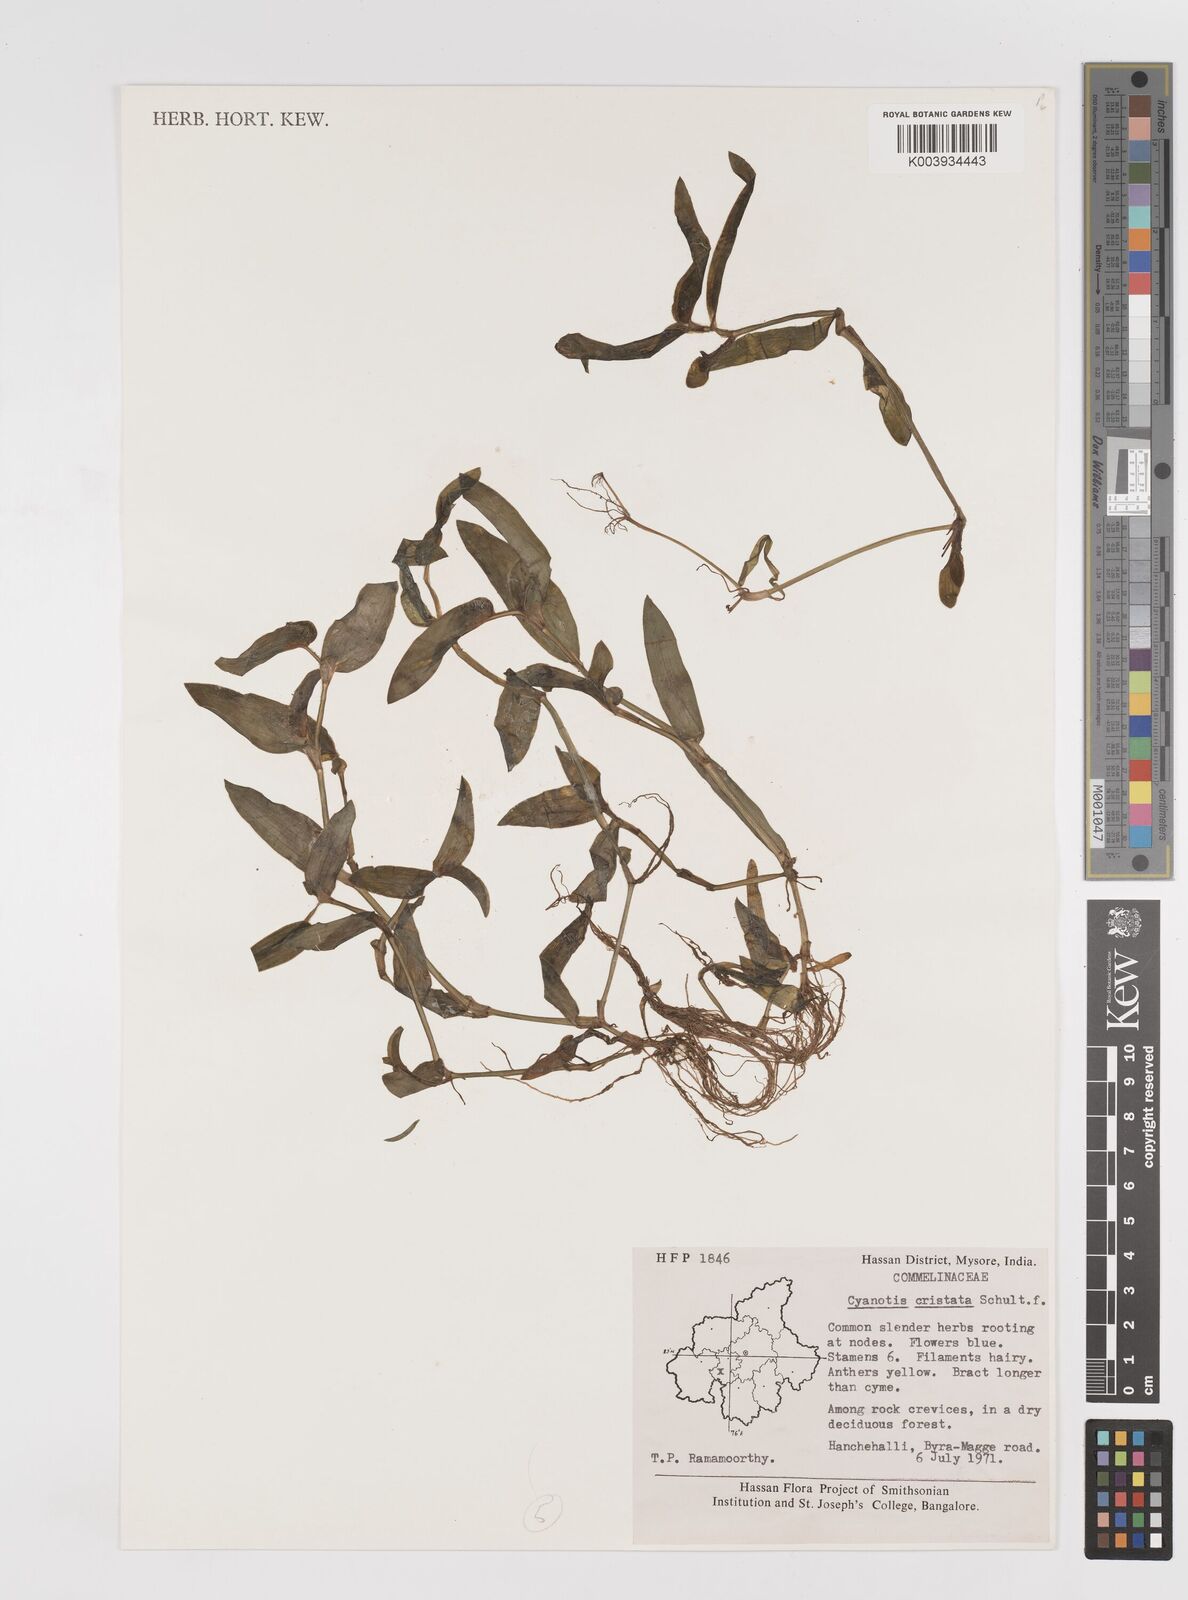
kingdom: Plantae
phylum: Tracheophyta
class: Liliopsida
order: Commelinales
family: Commelinaceae
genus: Cyanotis
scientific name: Cyanotis cristata
